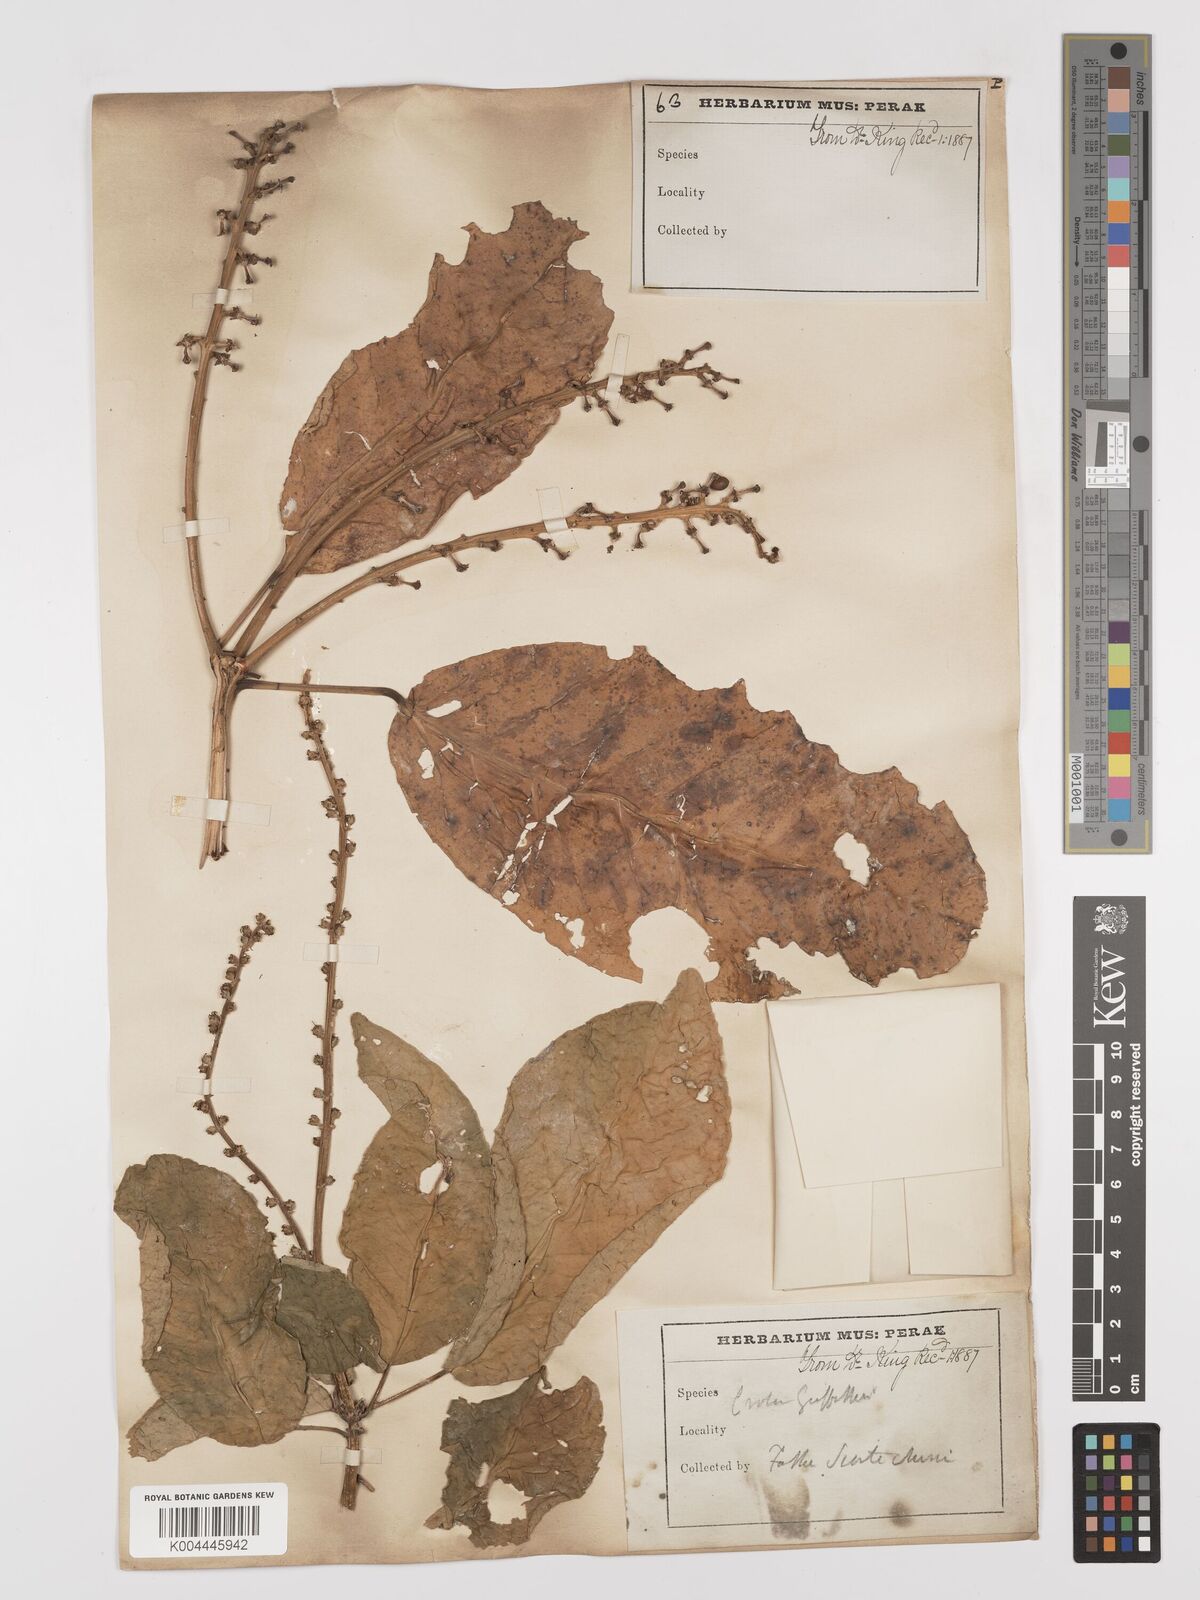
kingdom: Plantae
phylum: Tracheophyta
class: Magnoliopsida
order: Malpighiales
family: Euphorbiaceae
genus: Croton
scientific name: Croton griffithii
